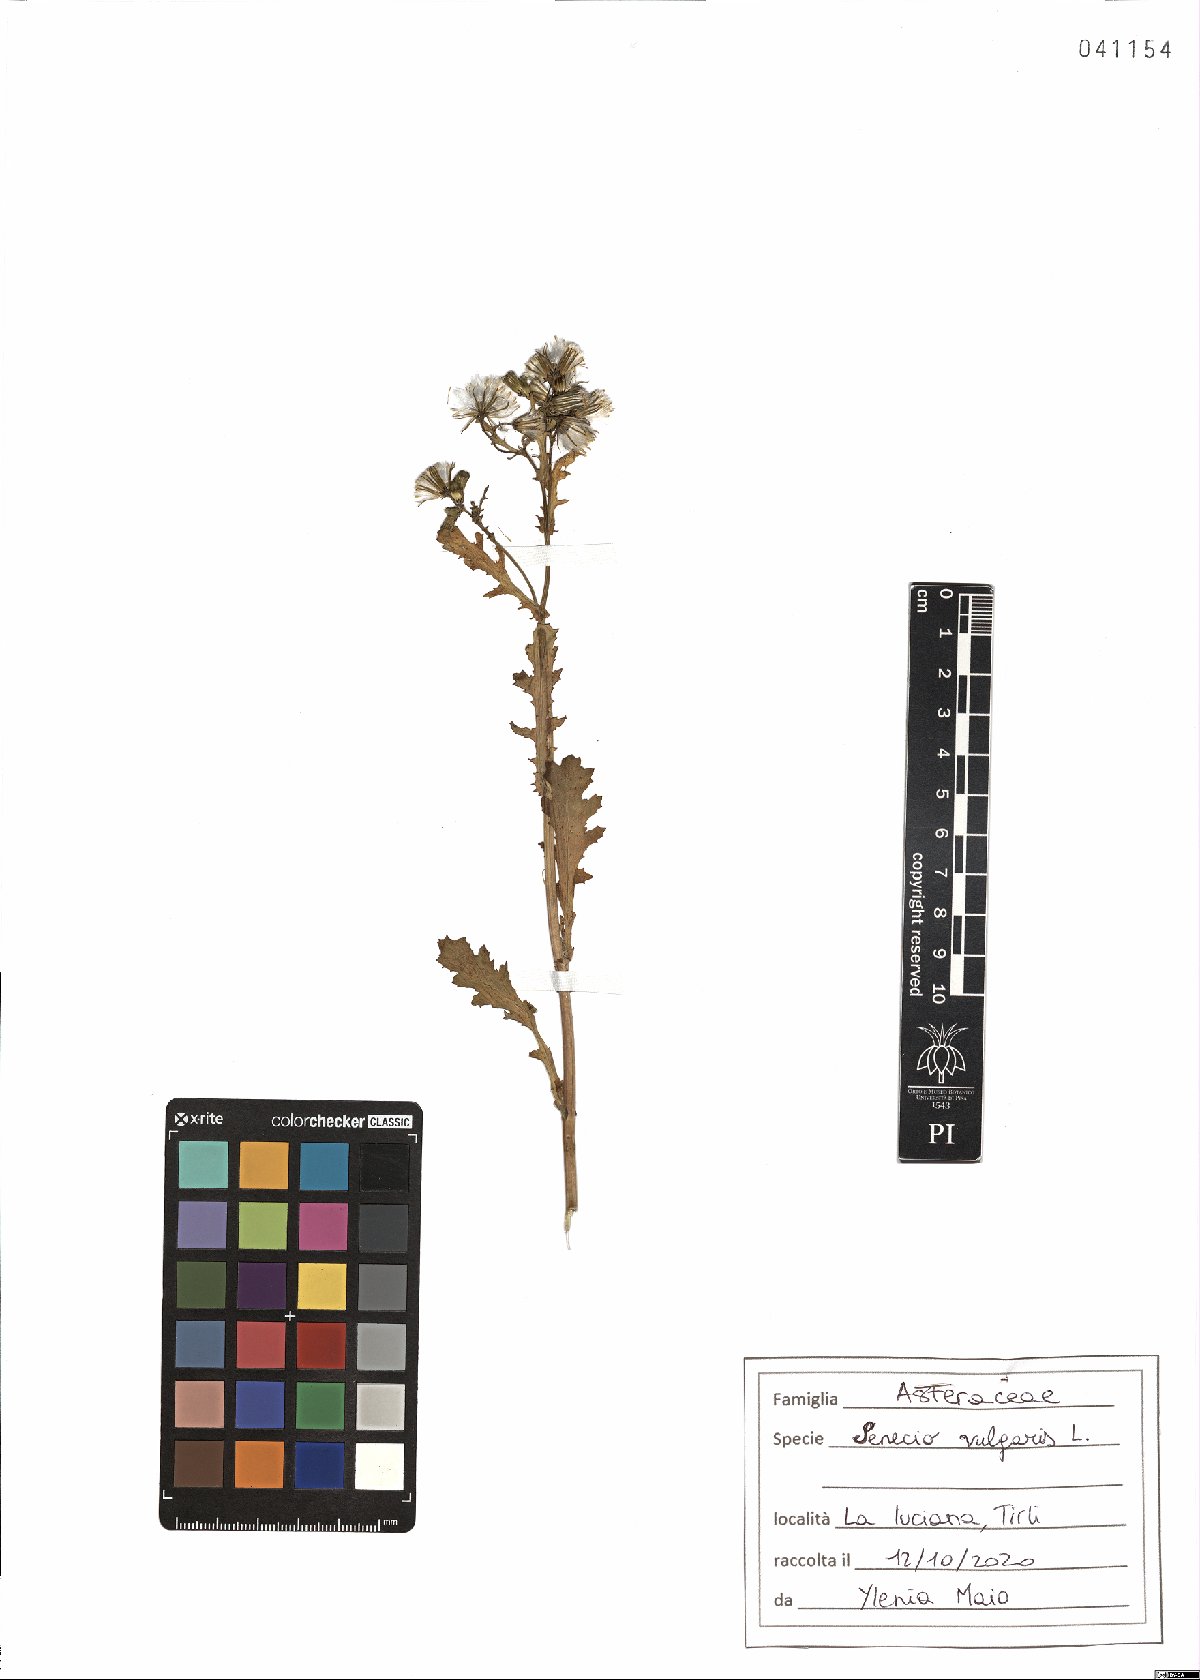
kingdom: Plantae
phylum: Tracheophyta
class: Magnoliopsida
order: Asterales
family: Asteraceae
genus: Senecio
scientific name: Senecio vulgaris
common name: Old-man-in-the-spring
